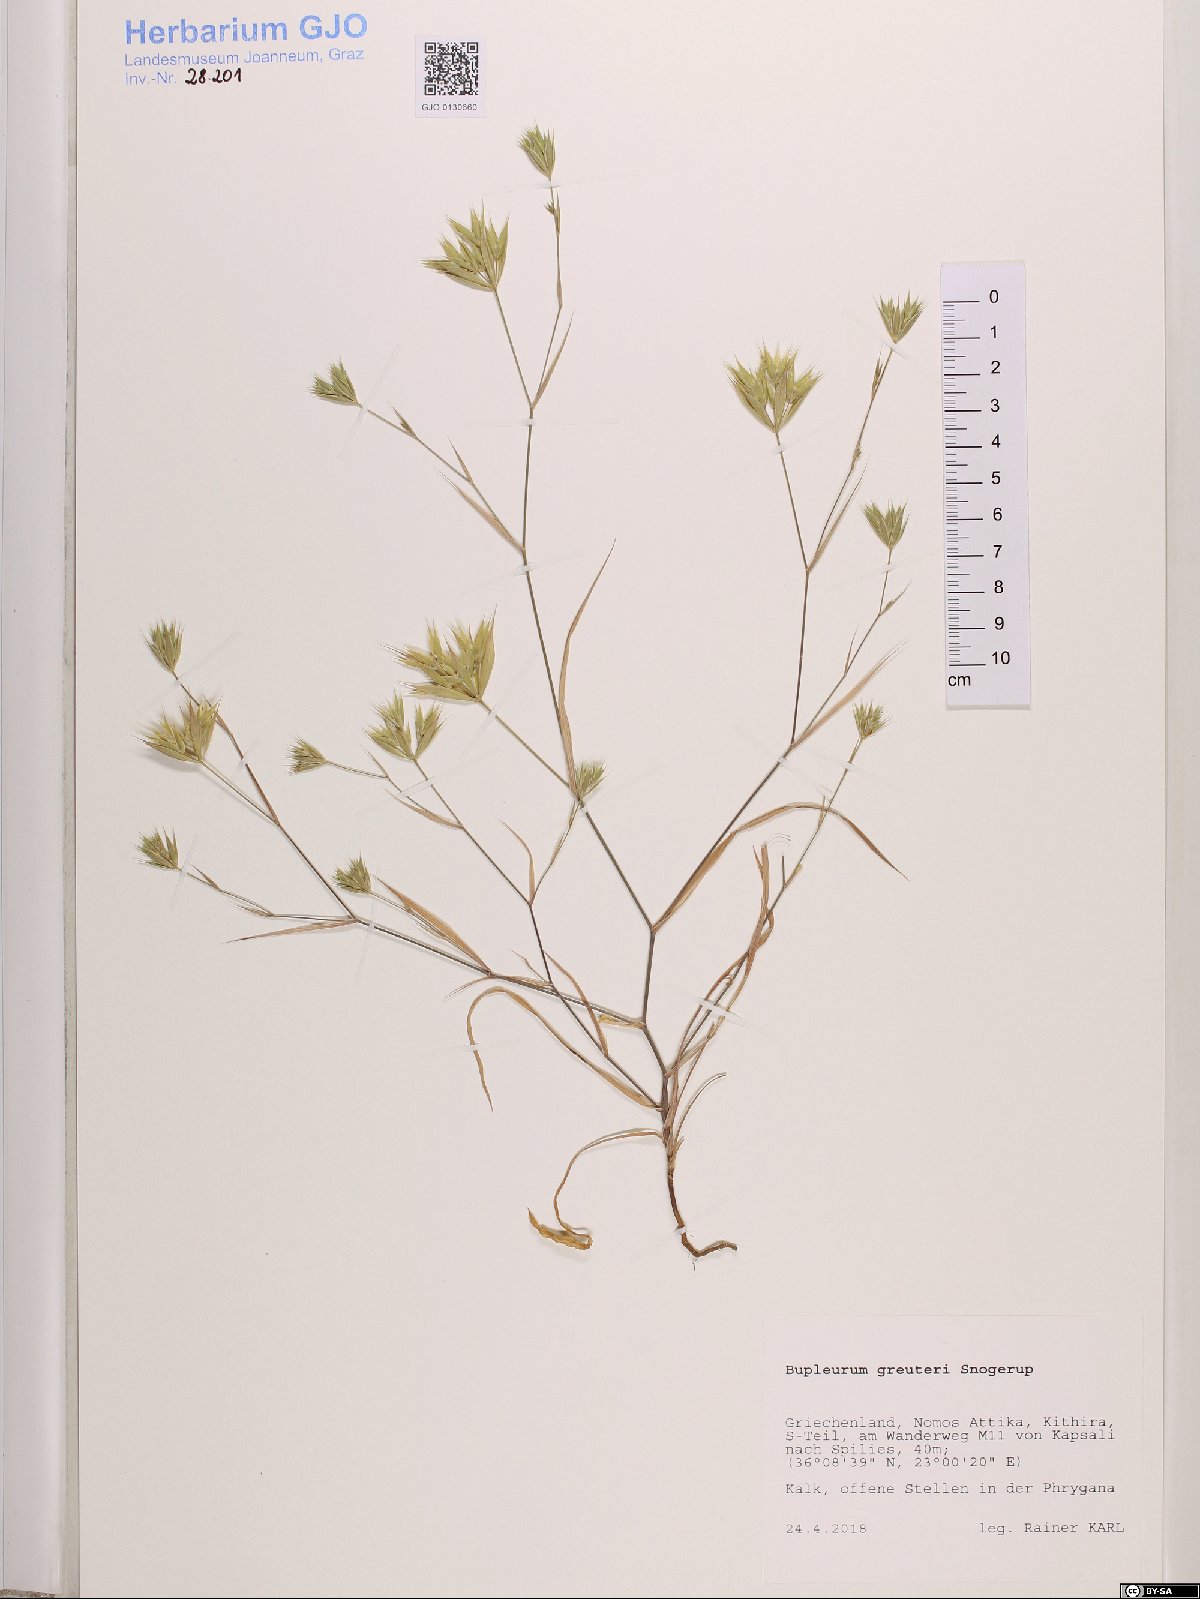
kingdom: Plantae
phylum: Tracheophyta
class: Magnoliopsida
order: Apiales
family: Apiaceae
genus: Bupleurum
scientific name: Bupleurum greuteri
